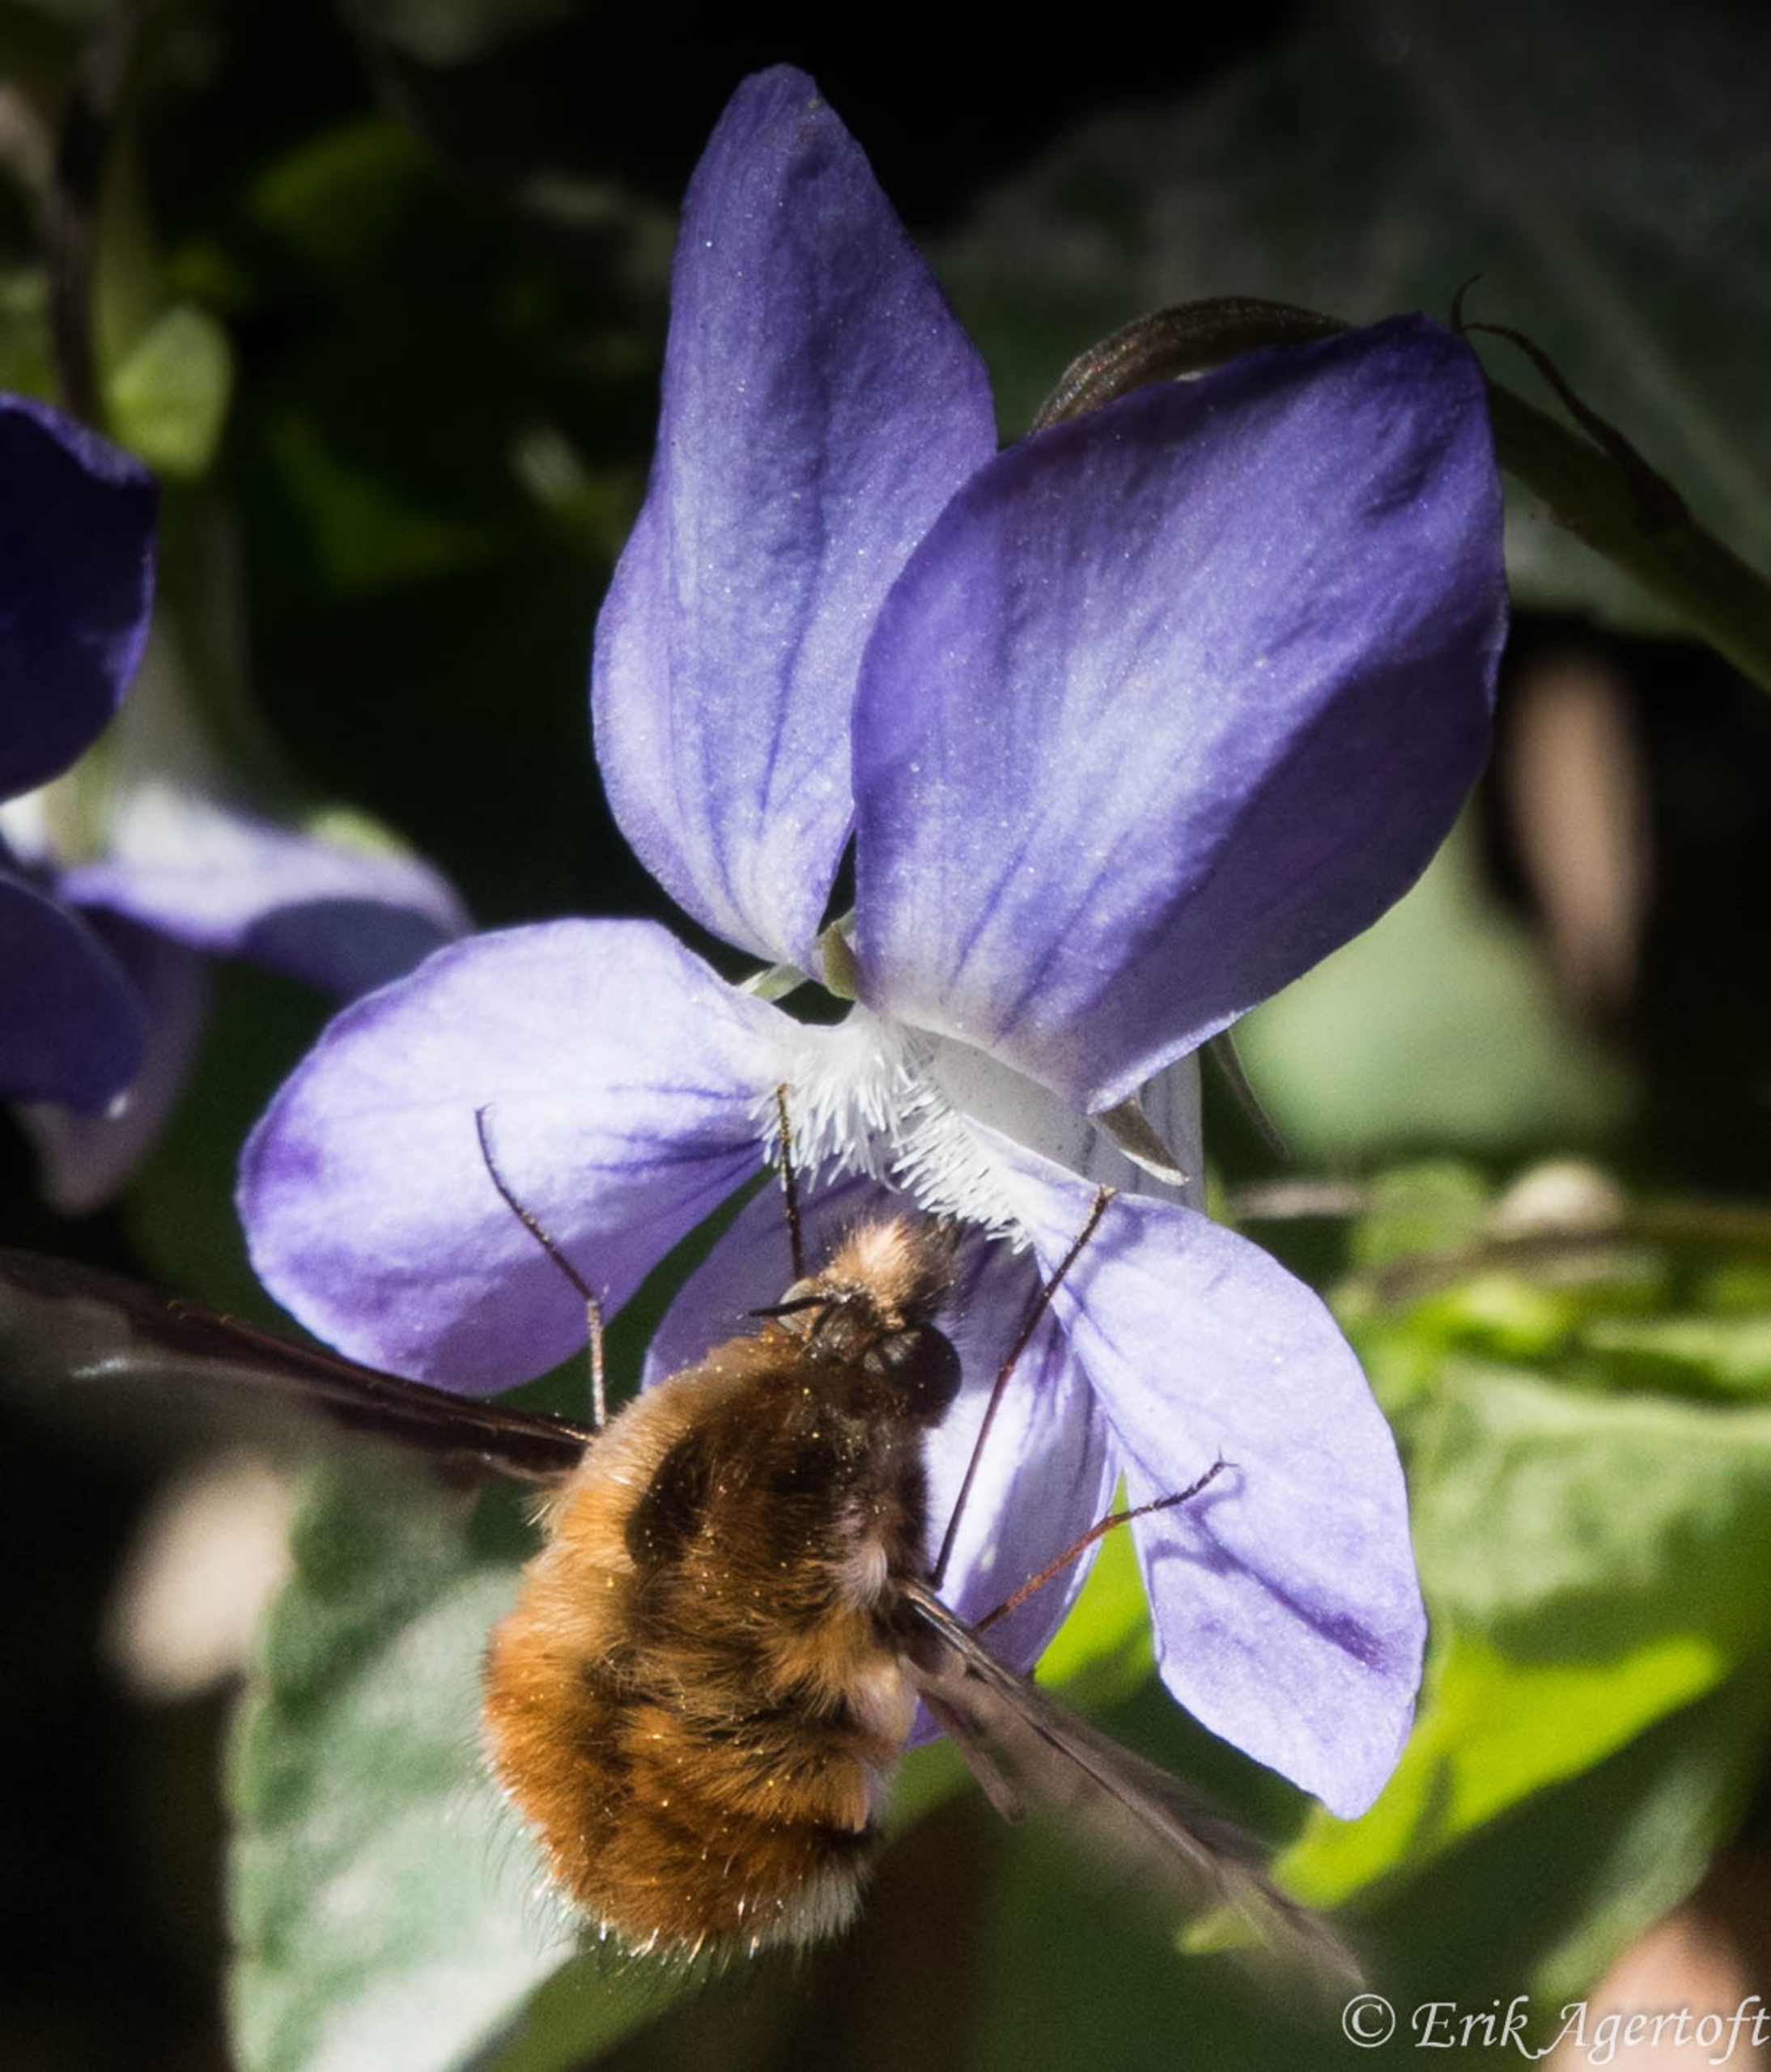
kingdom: Animalia
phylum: Arthropoda
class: Insecta
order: Diptera
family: Bombyliidae
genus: Bombylius
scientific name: Bombylius major
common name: Stor humleflue
